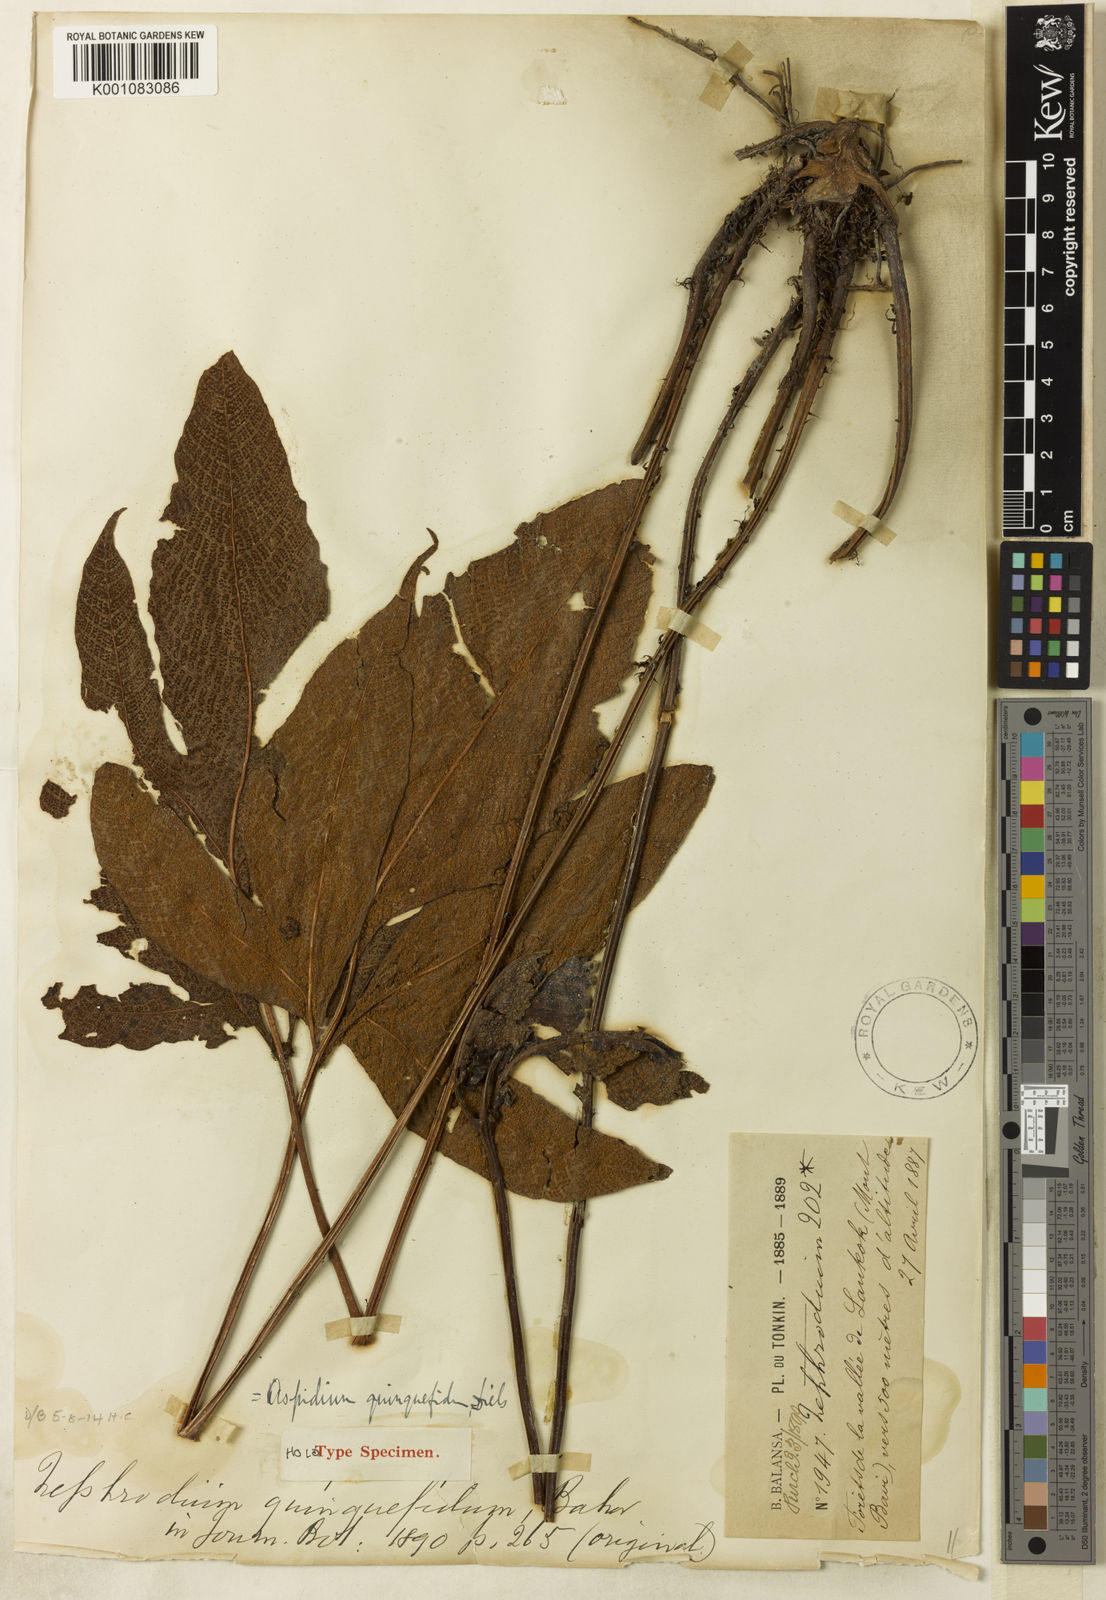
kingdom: Plantae
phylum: Tracheophyta
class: Polypodiopsida
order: Polypodiales
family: Tectariaceae
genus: Tectaria
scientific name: Tectaria quinquefida
